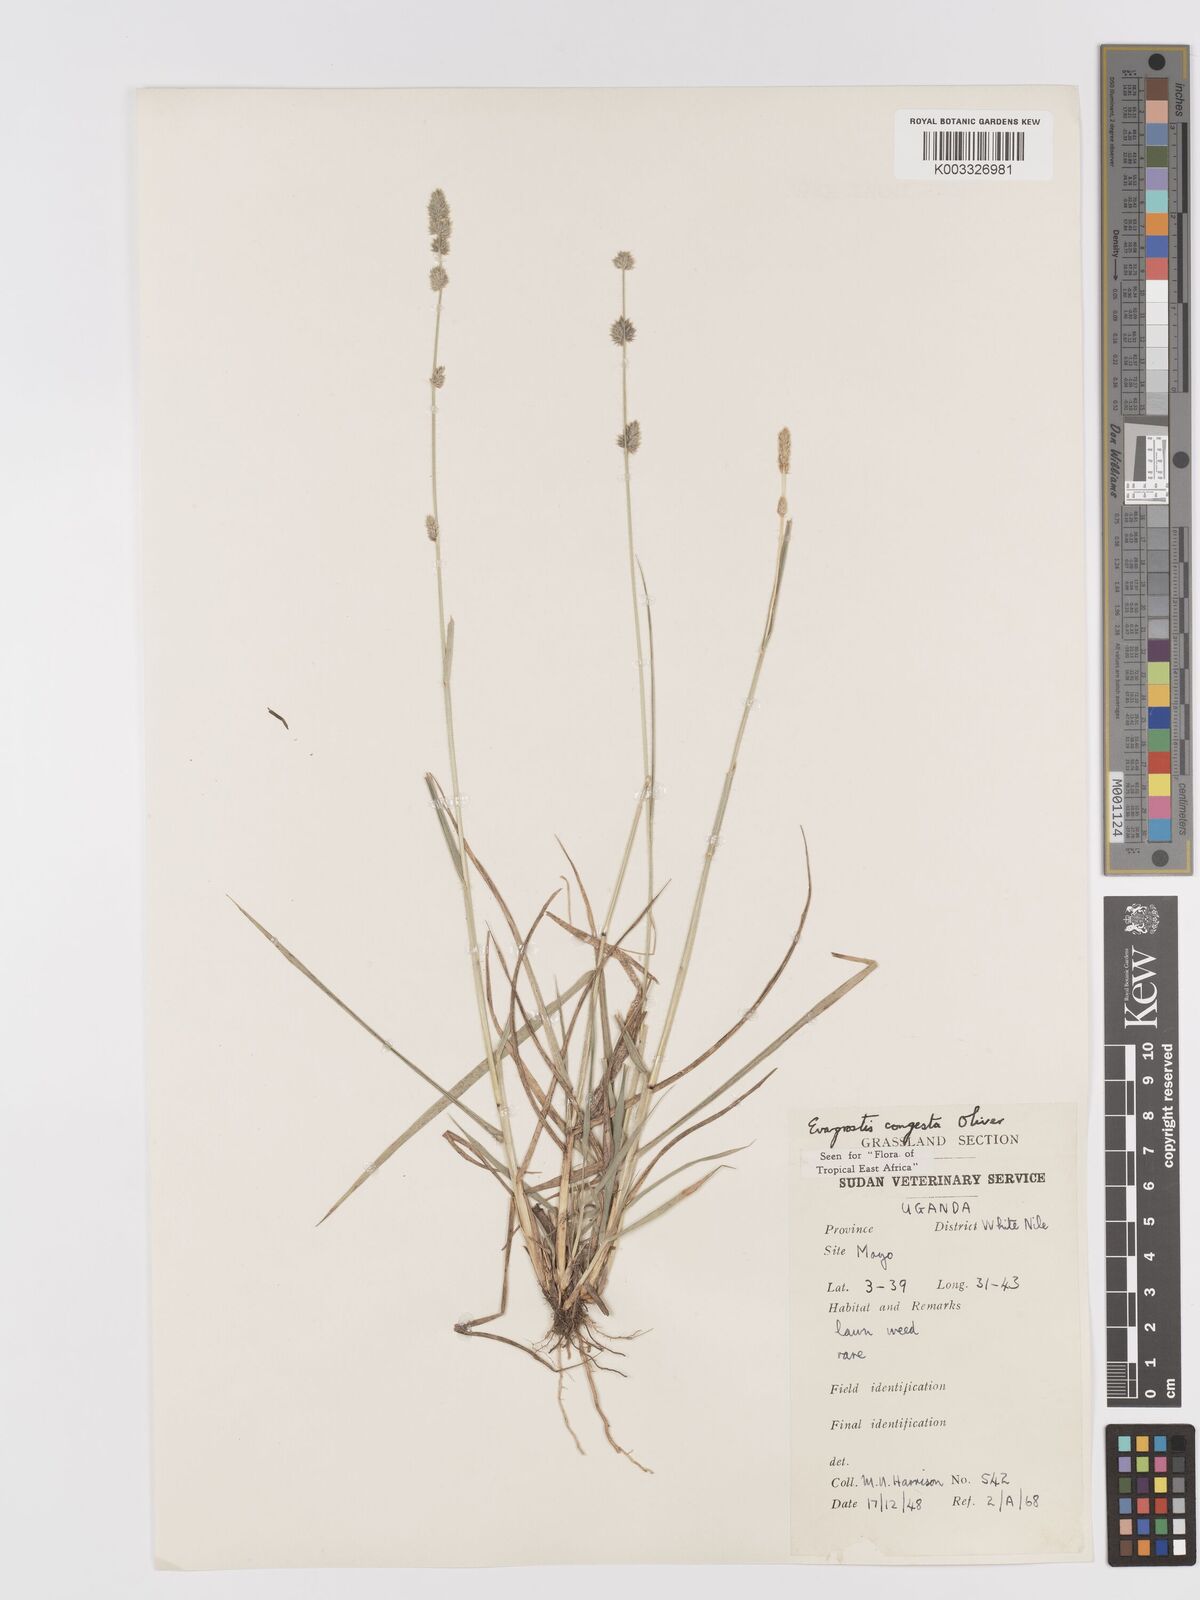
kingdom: Plantae
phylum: Tracheophyta
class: Liliopsida
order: Poales
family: Poaceae
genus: Eragrostis
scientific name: Eragrostis congesta
